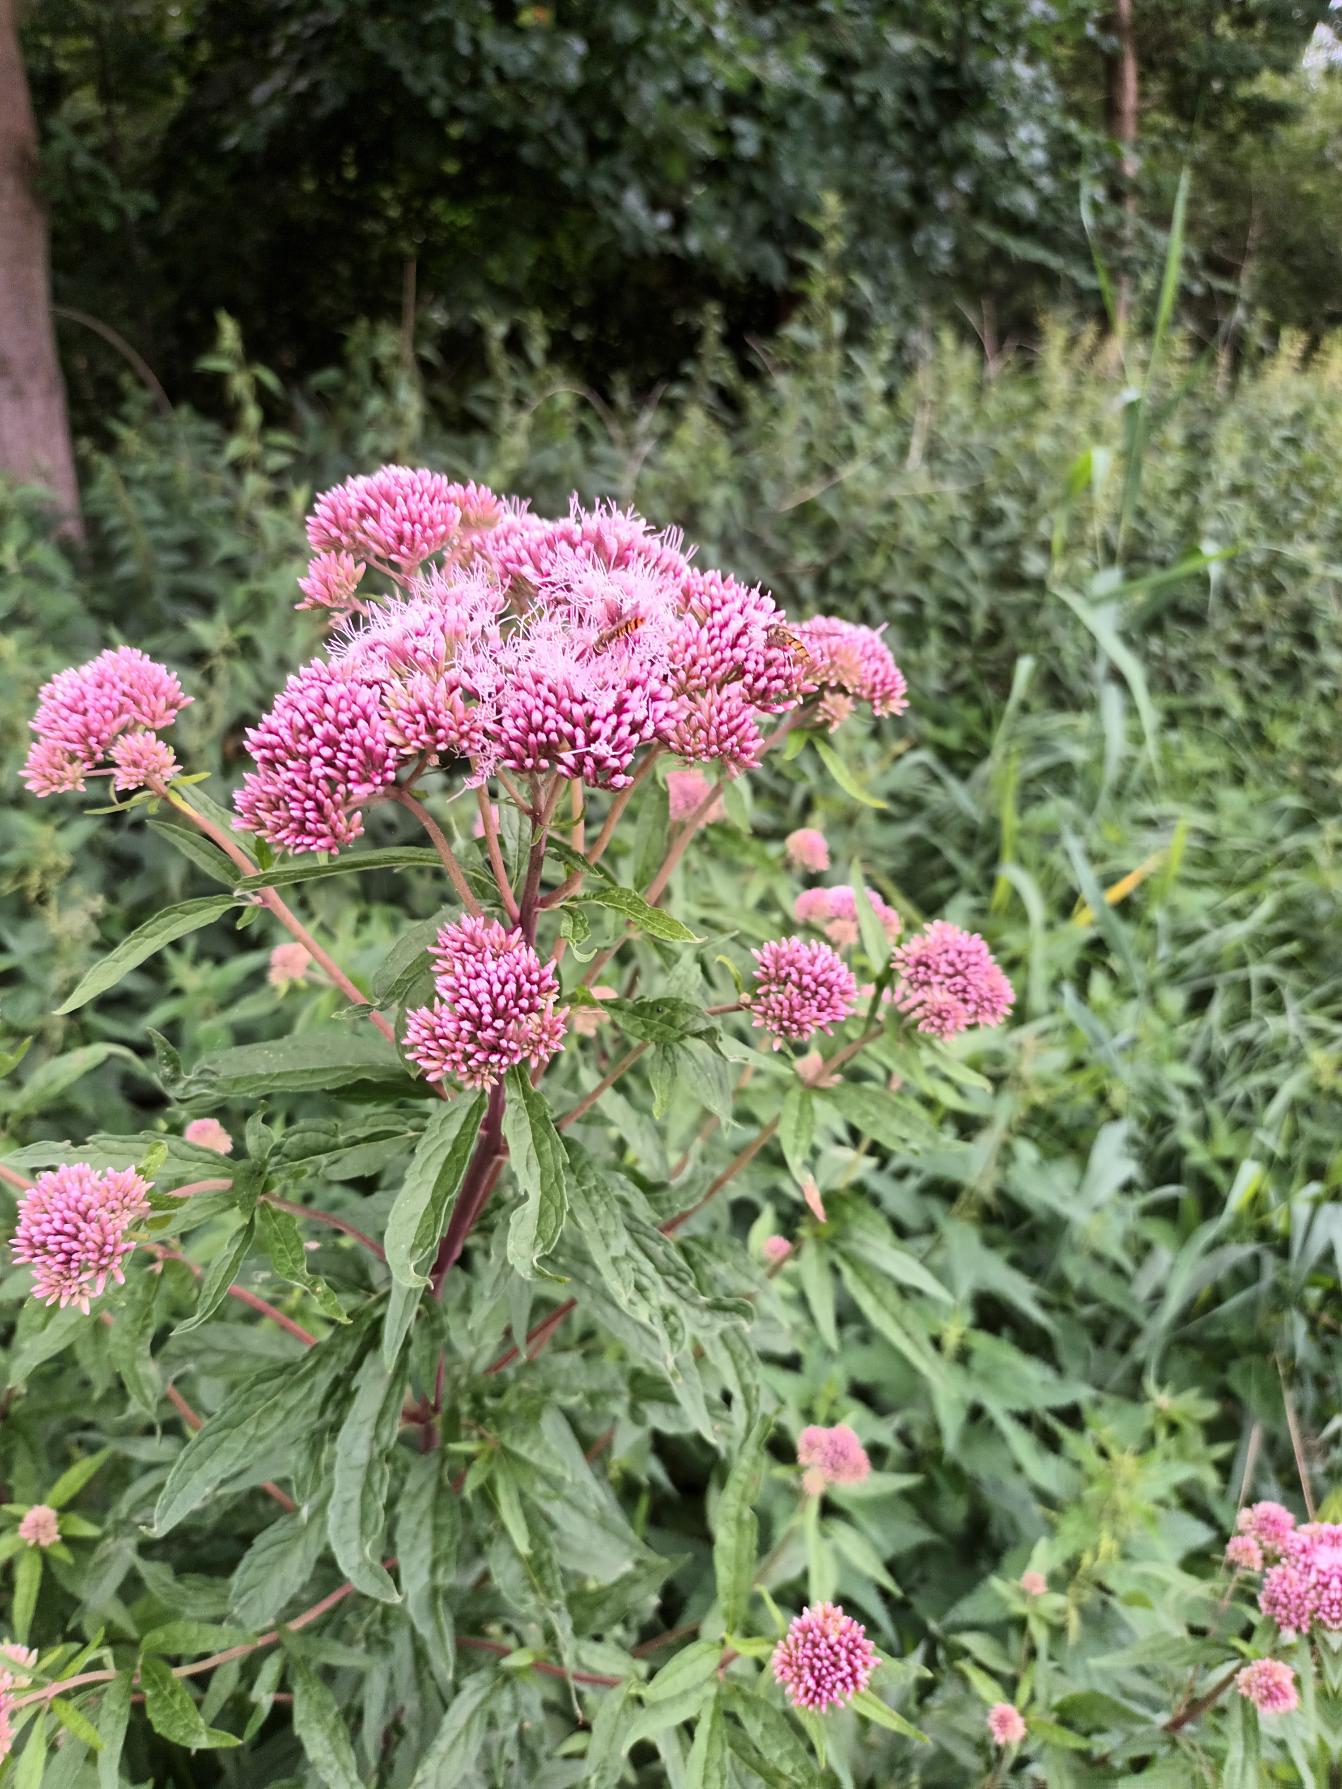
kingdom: Plantae
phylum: Tracheophyta
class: Magnoliopsida
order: Asterales
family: Asteraceae
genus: Eupatorium
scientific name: Eupatorium cannabinum
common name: Hjortetrøst
